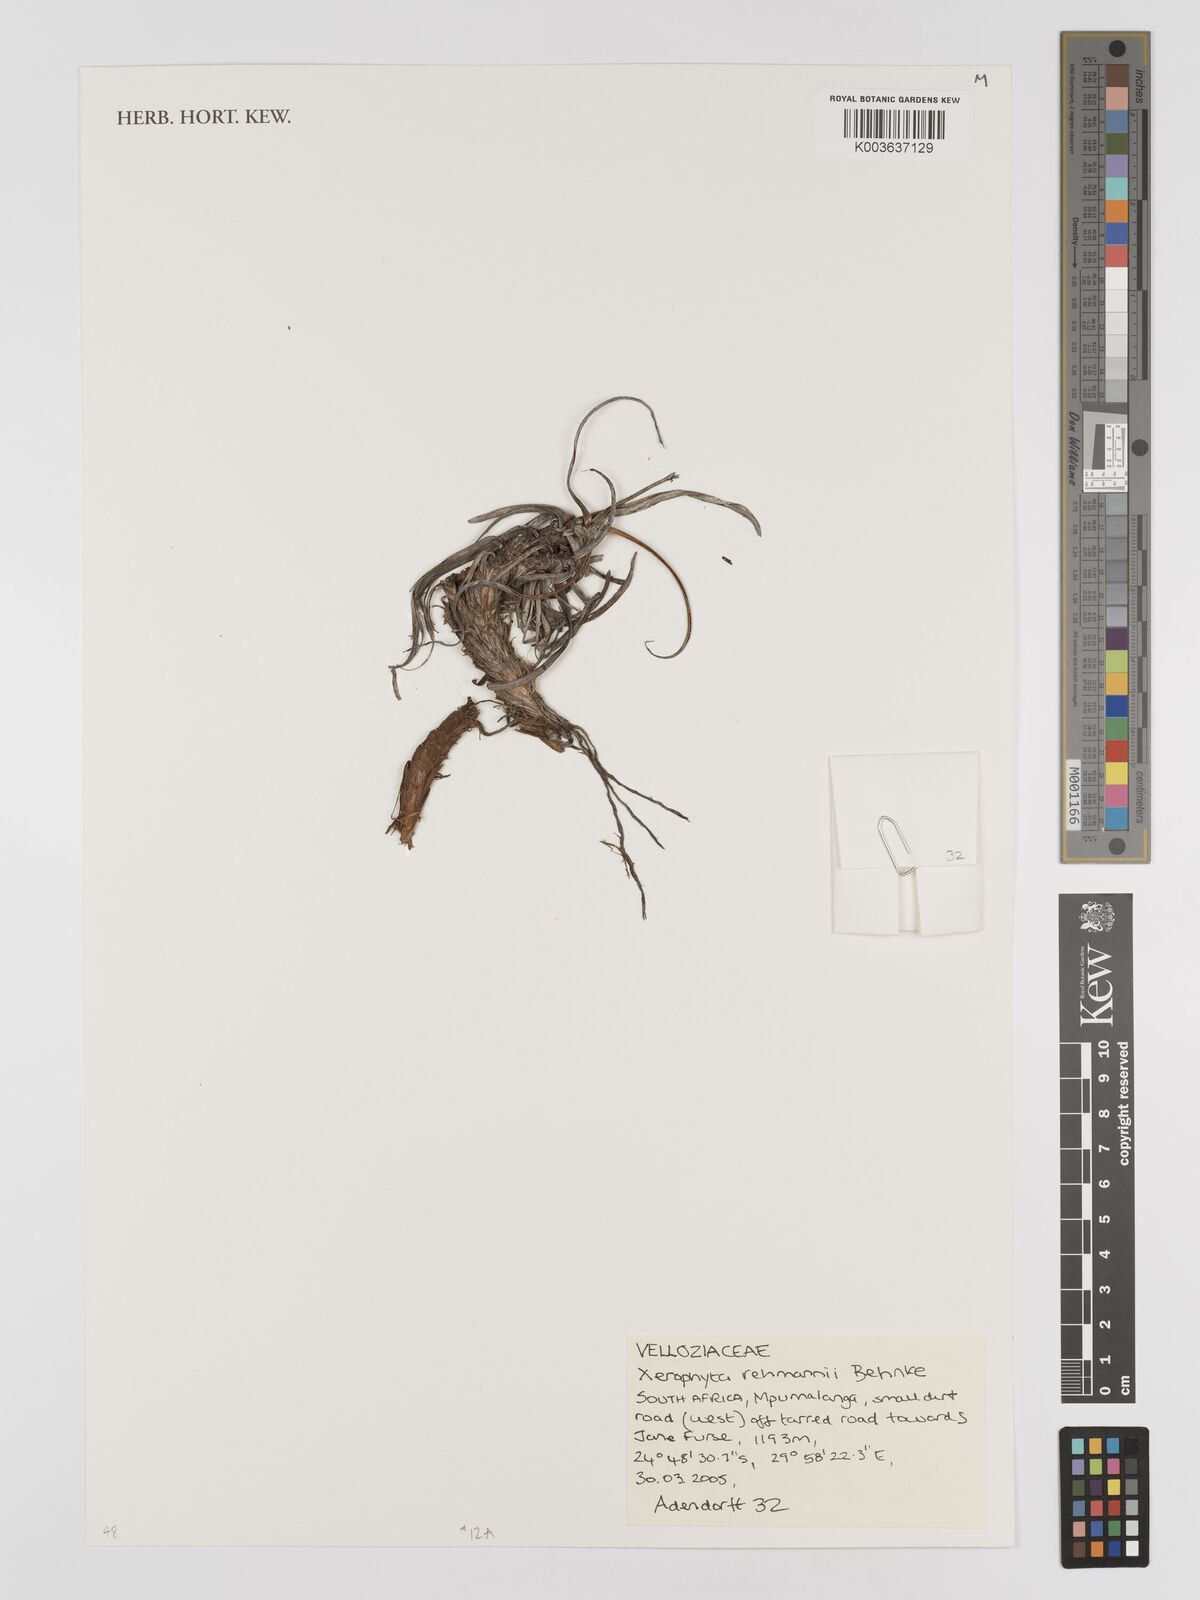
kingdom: Plantae
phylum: Tracheophyta
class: Liliopsida
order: Pandanales
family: Velloziaceae
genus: Xerophyta
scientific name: Xerophyta rehmannii
